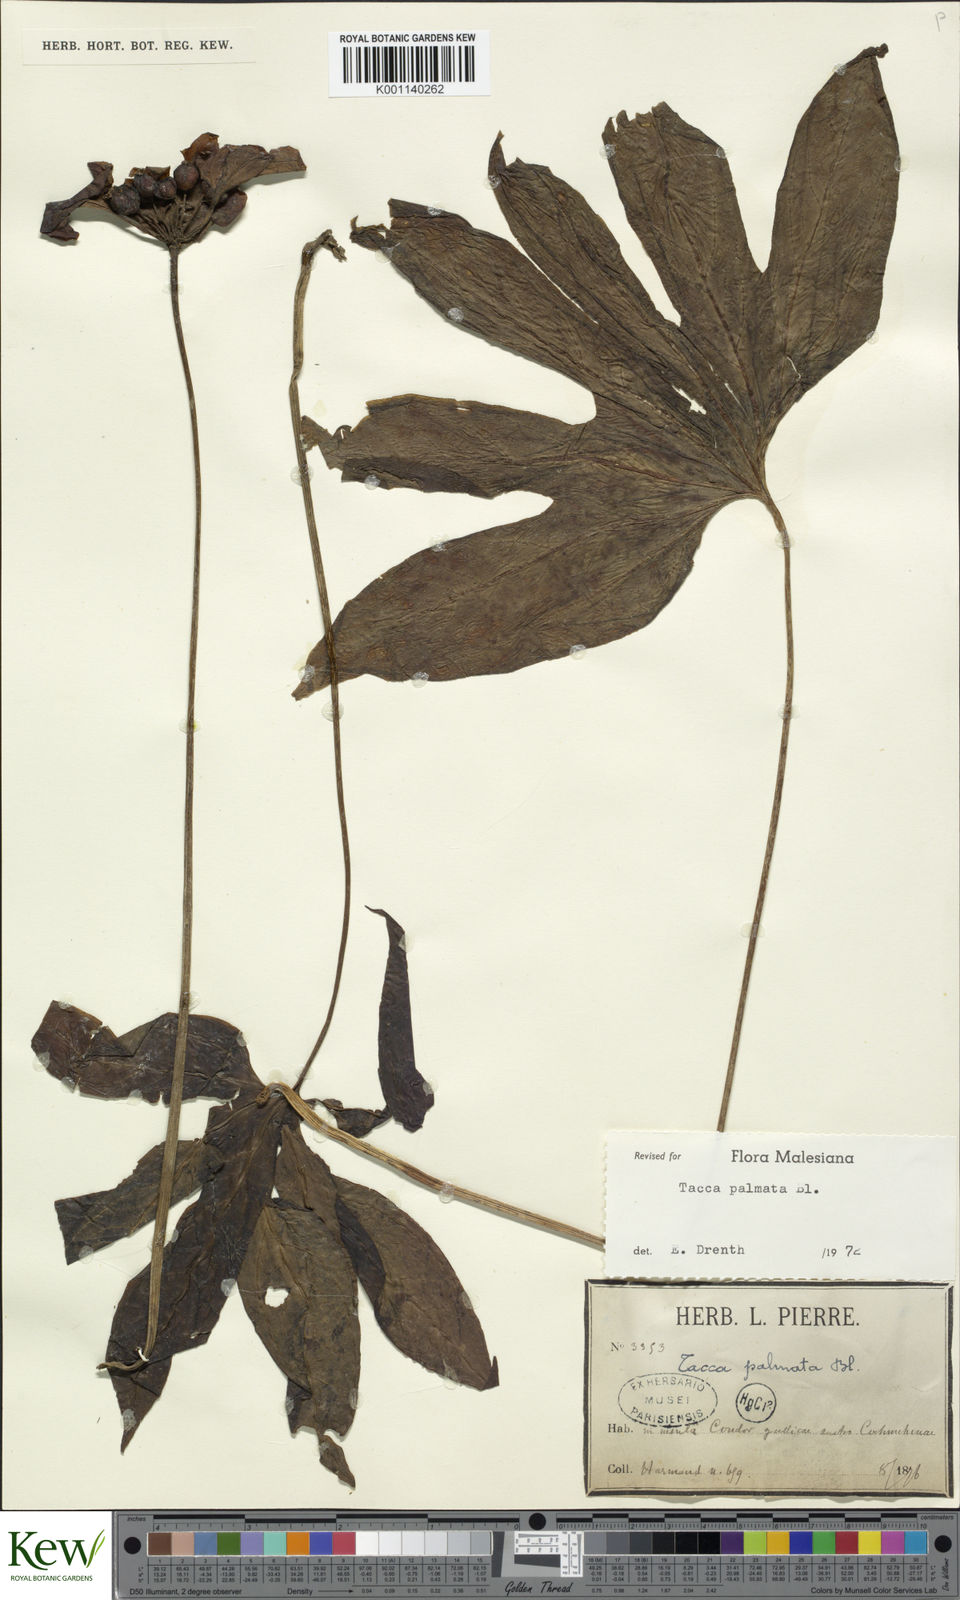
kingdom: Plantae
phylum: Tracheophyta
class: Liliopsida
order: Dioscoreales
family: Dioscoreaceae
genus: Tacca
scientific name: Tacca palmata
